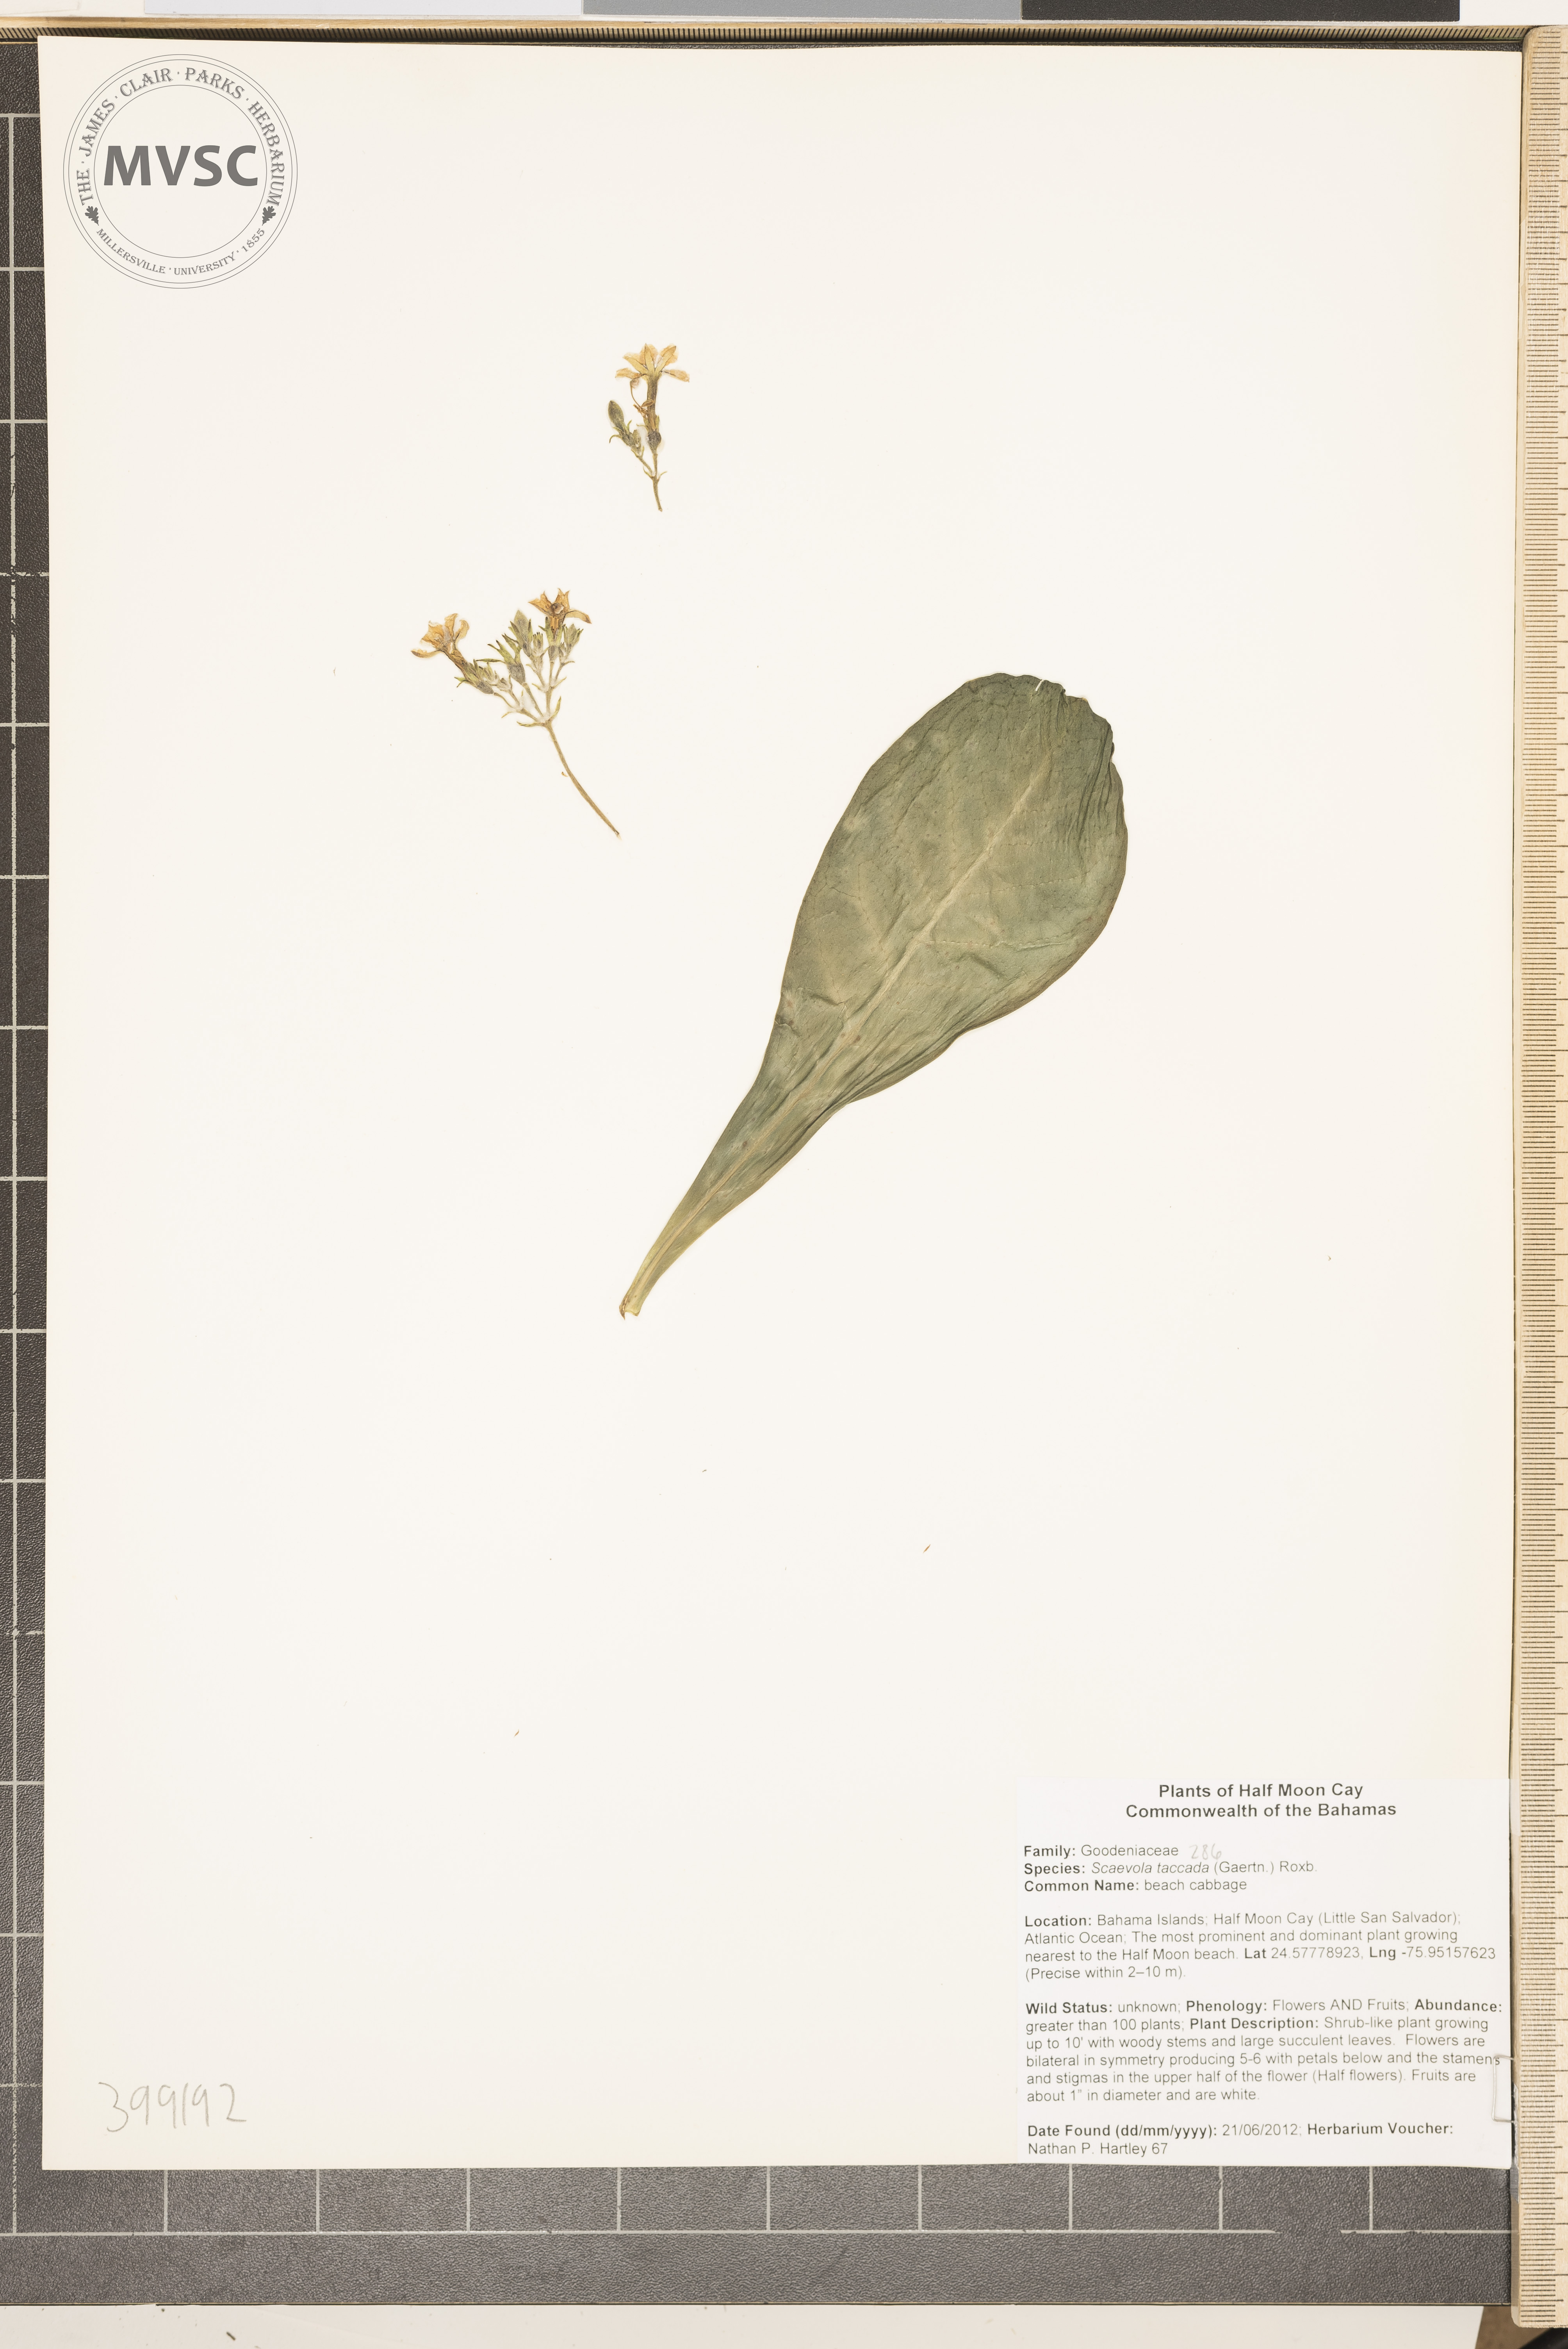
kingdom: Plantae
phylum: Tracheophyta
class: Magnoliopsida
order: Asterales
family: Goodeniaceae
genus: Scaevola
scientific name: Scaevola taccada
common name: Sea Lettuce
